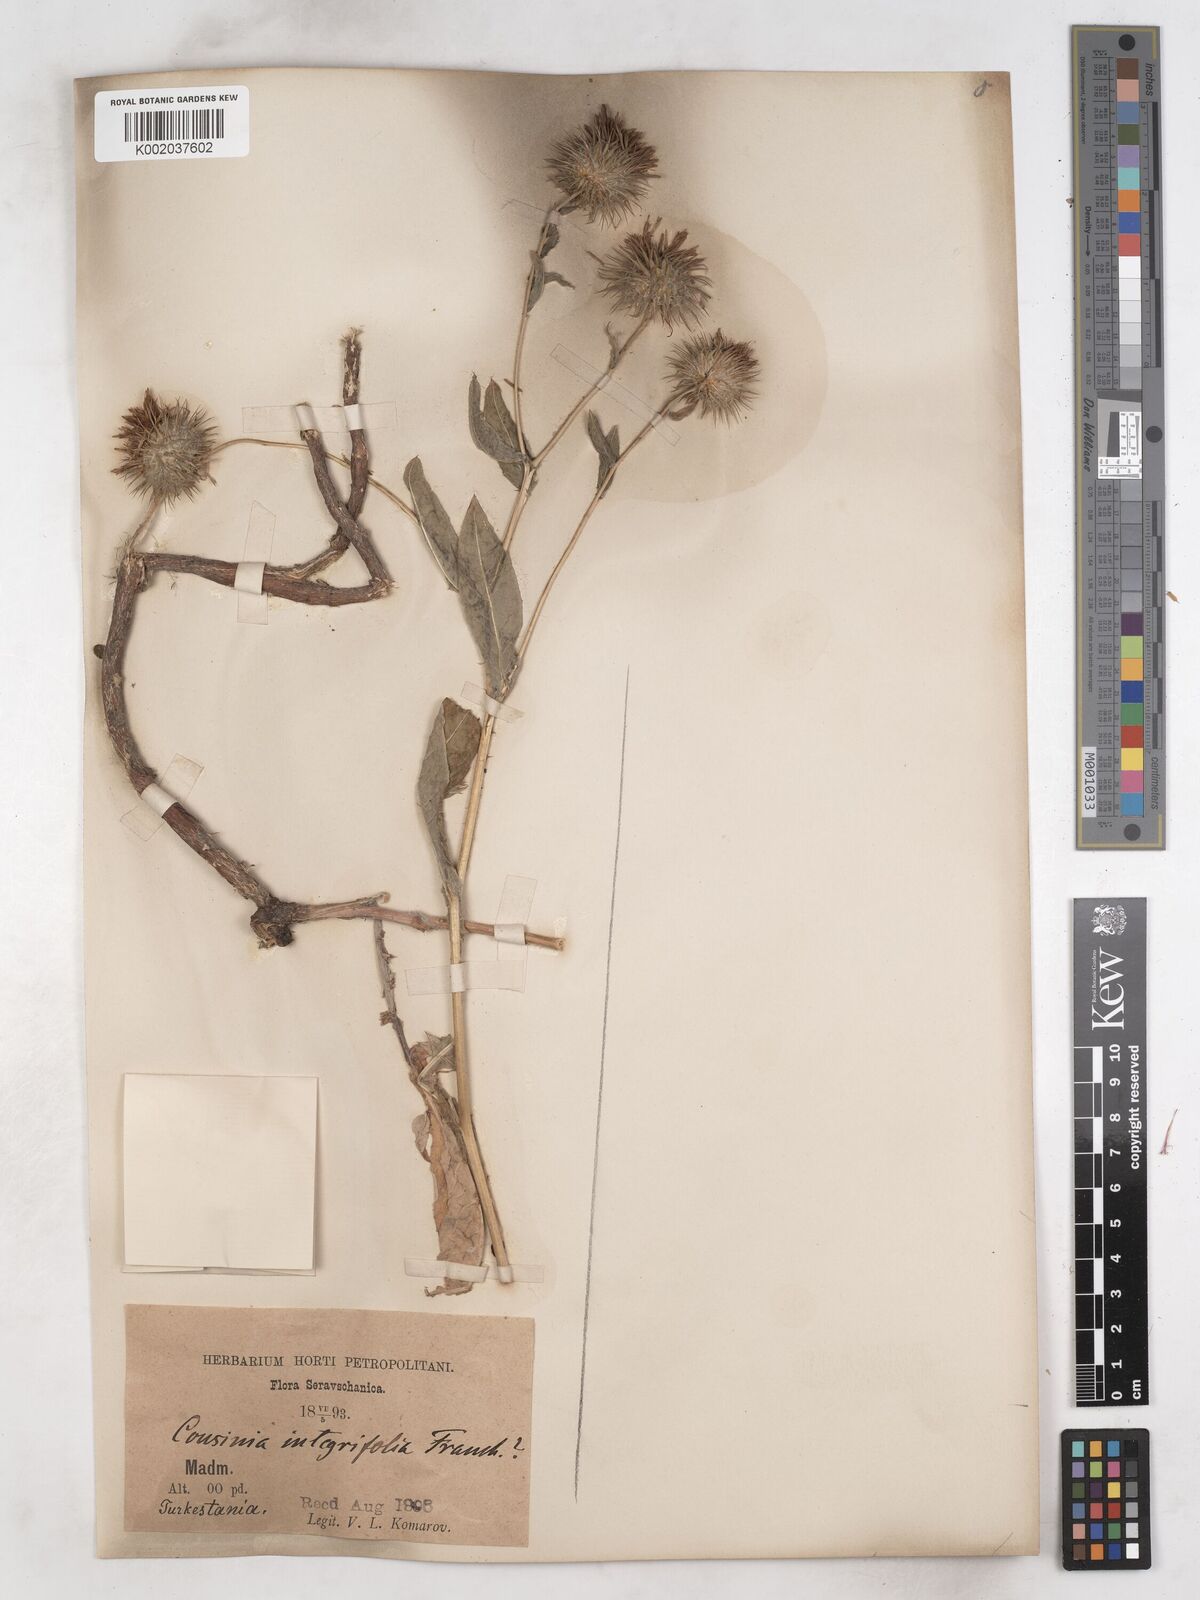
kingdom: Plantae
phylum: Tracheophyta
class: Magnoliopsida
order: Asterales
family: Asteraceae
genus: Cousinia
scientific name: Cousinia integrifolia
